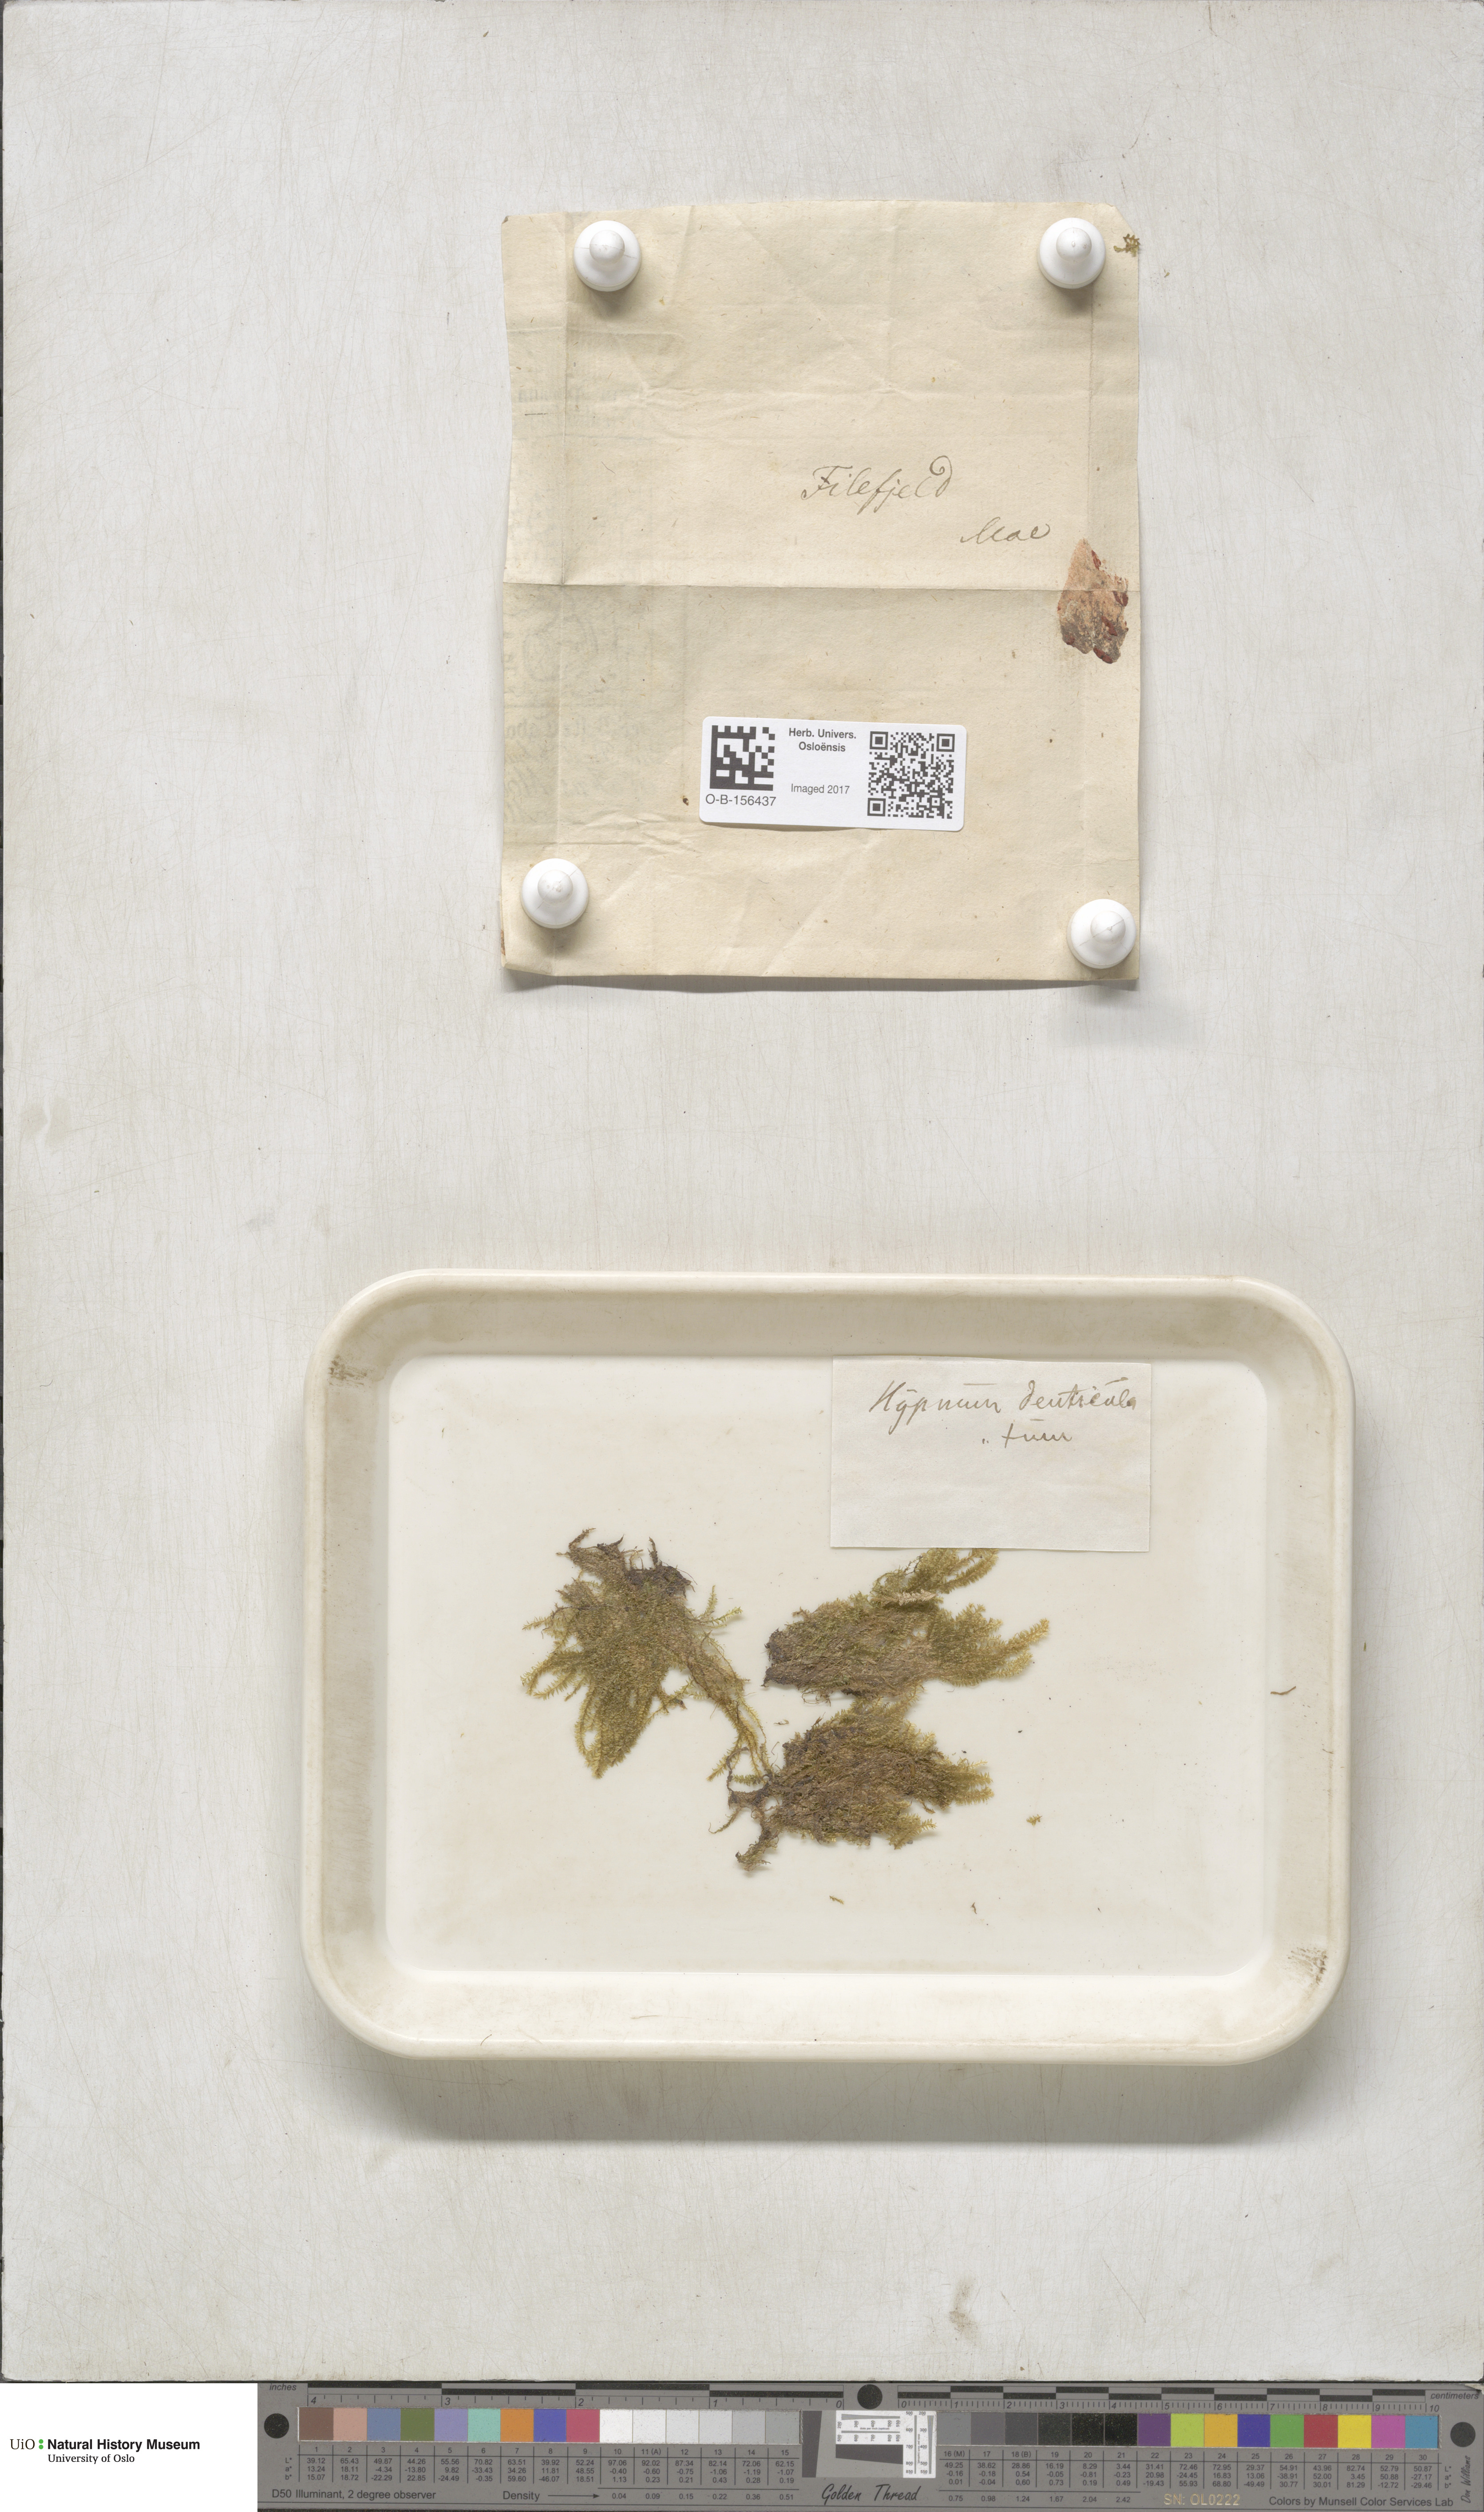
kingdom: Plantae
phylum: Bryophyta
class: Bryopsida
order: Hypnales
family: Plagiotheciaceae
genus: Plagiothecium
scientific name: Plagiothecium nemorale
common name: Woodsy silk-moss
